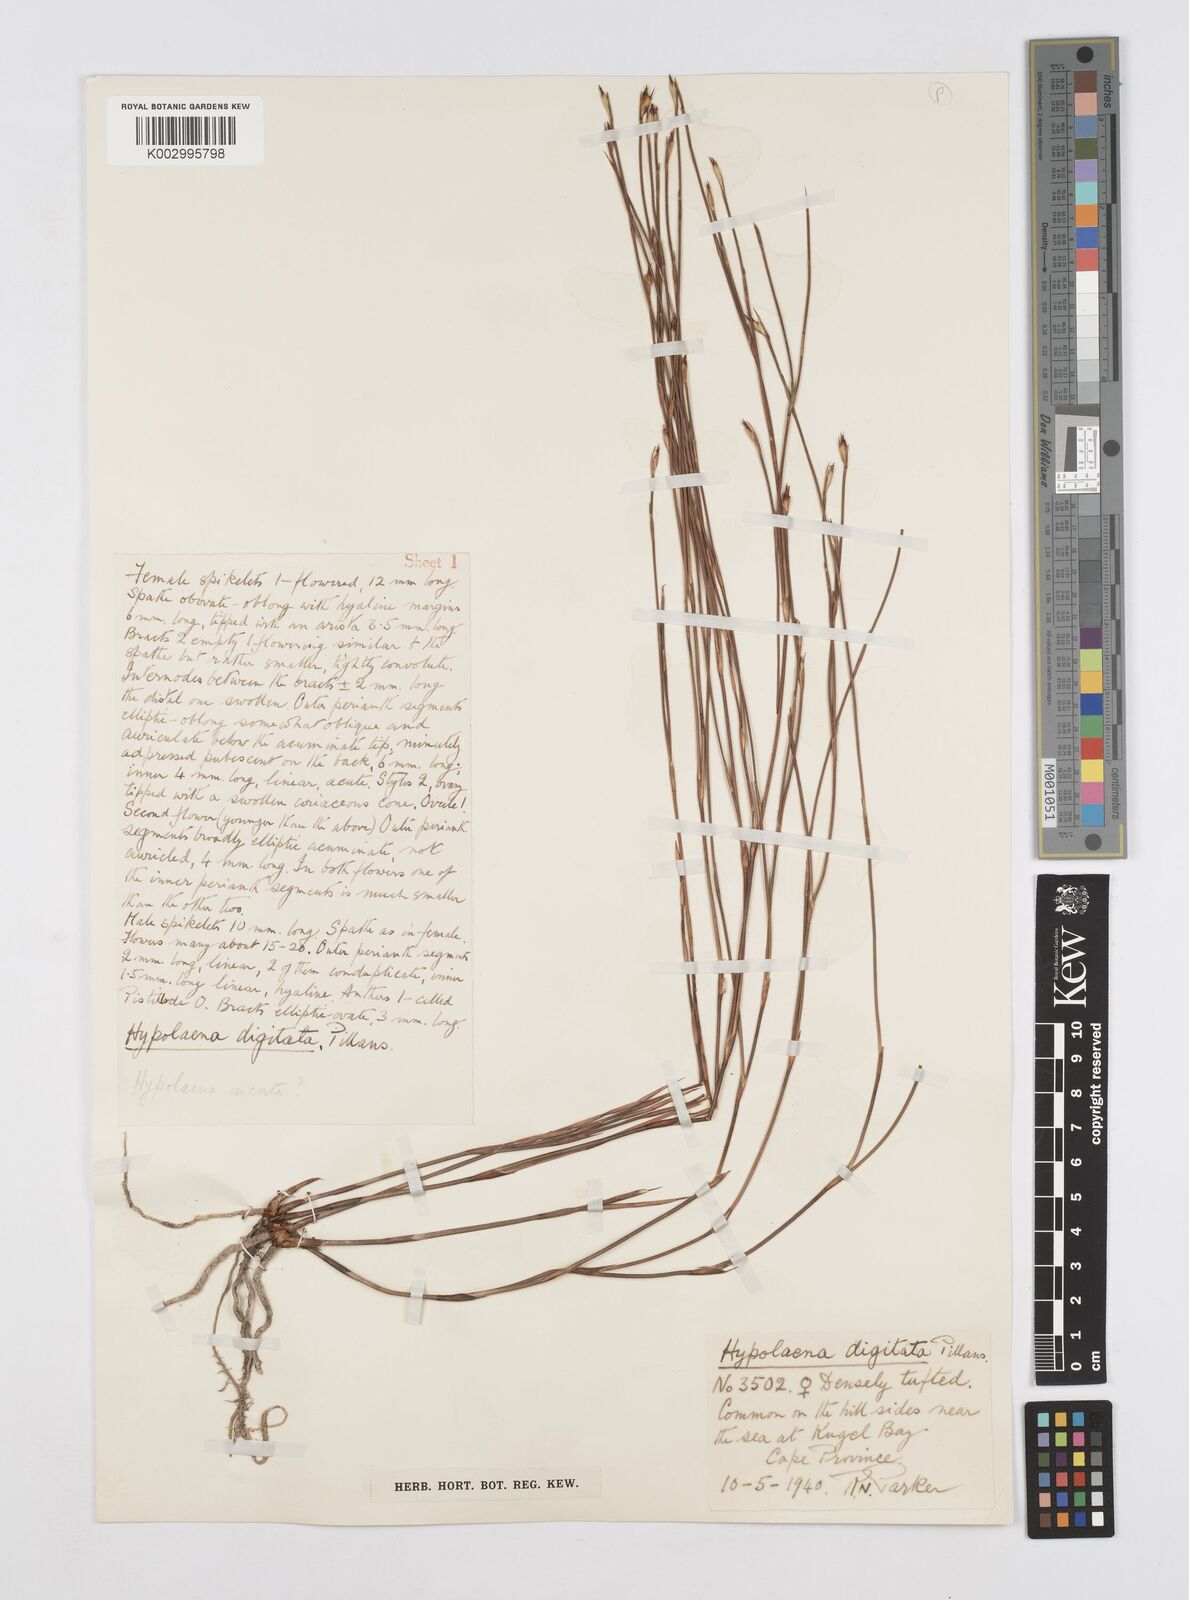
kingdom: Plantae
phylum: Tracheophyta
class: Liliopsida
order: Poales
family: Restionaceae
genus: Mastersiella
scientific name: Mastersiella digitata
